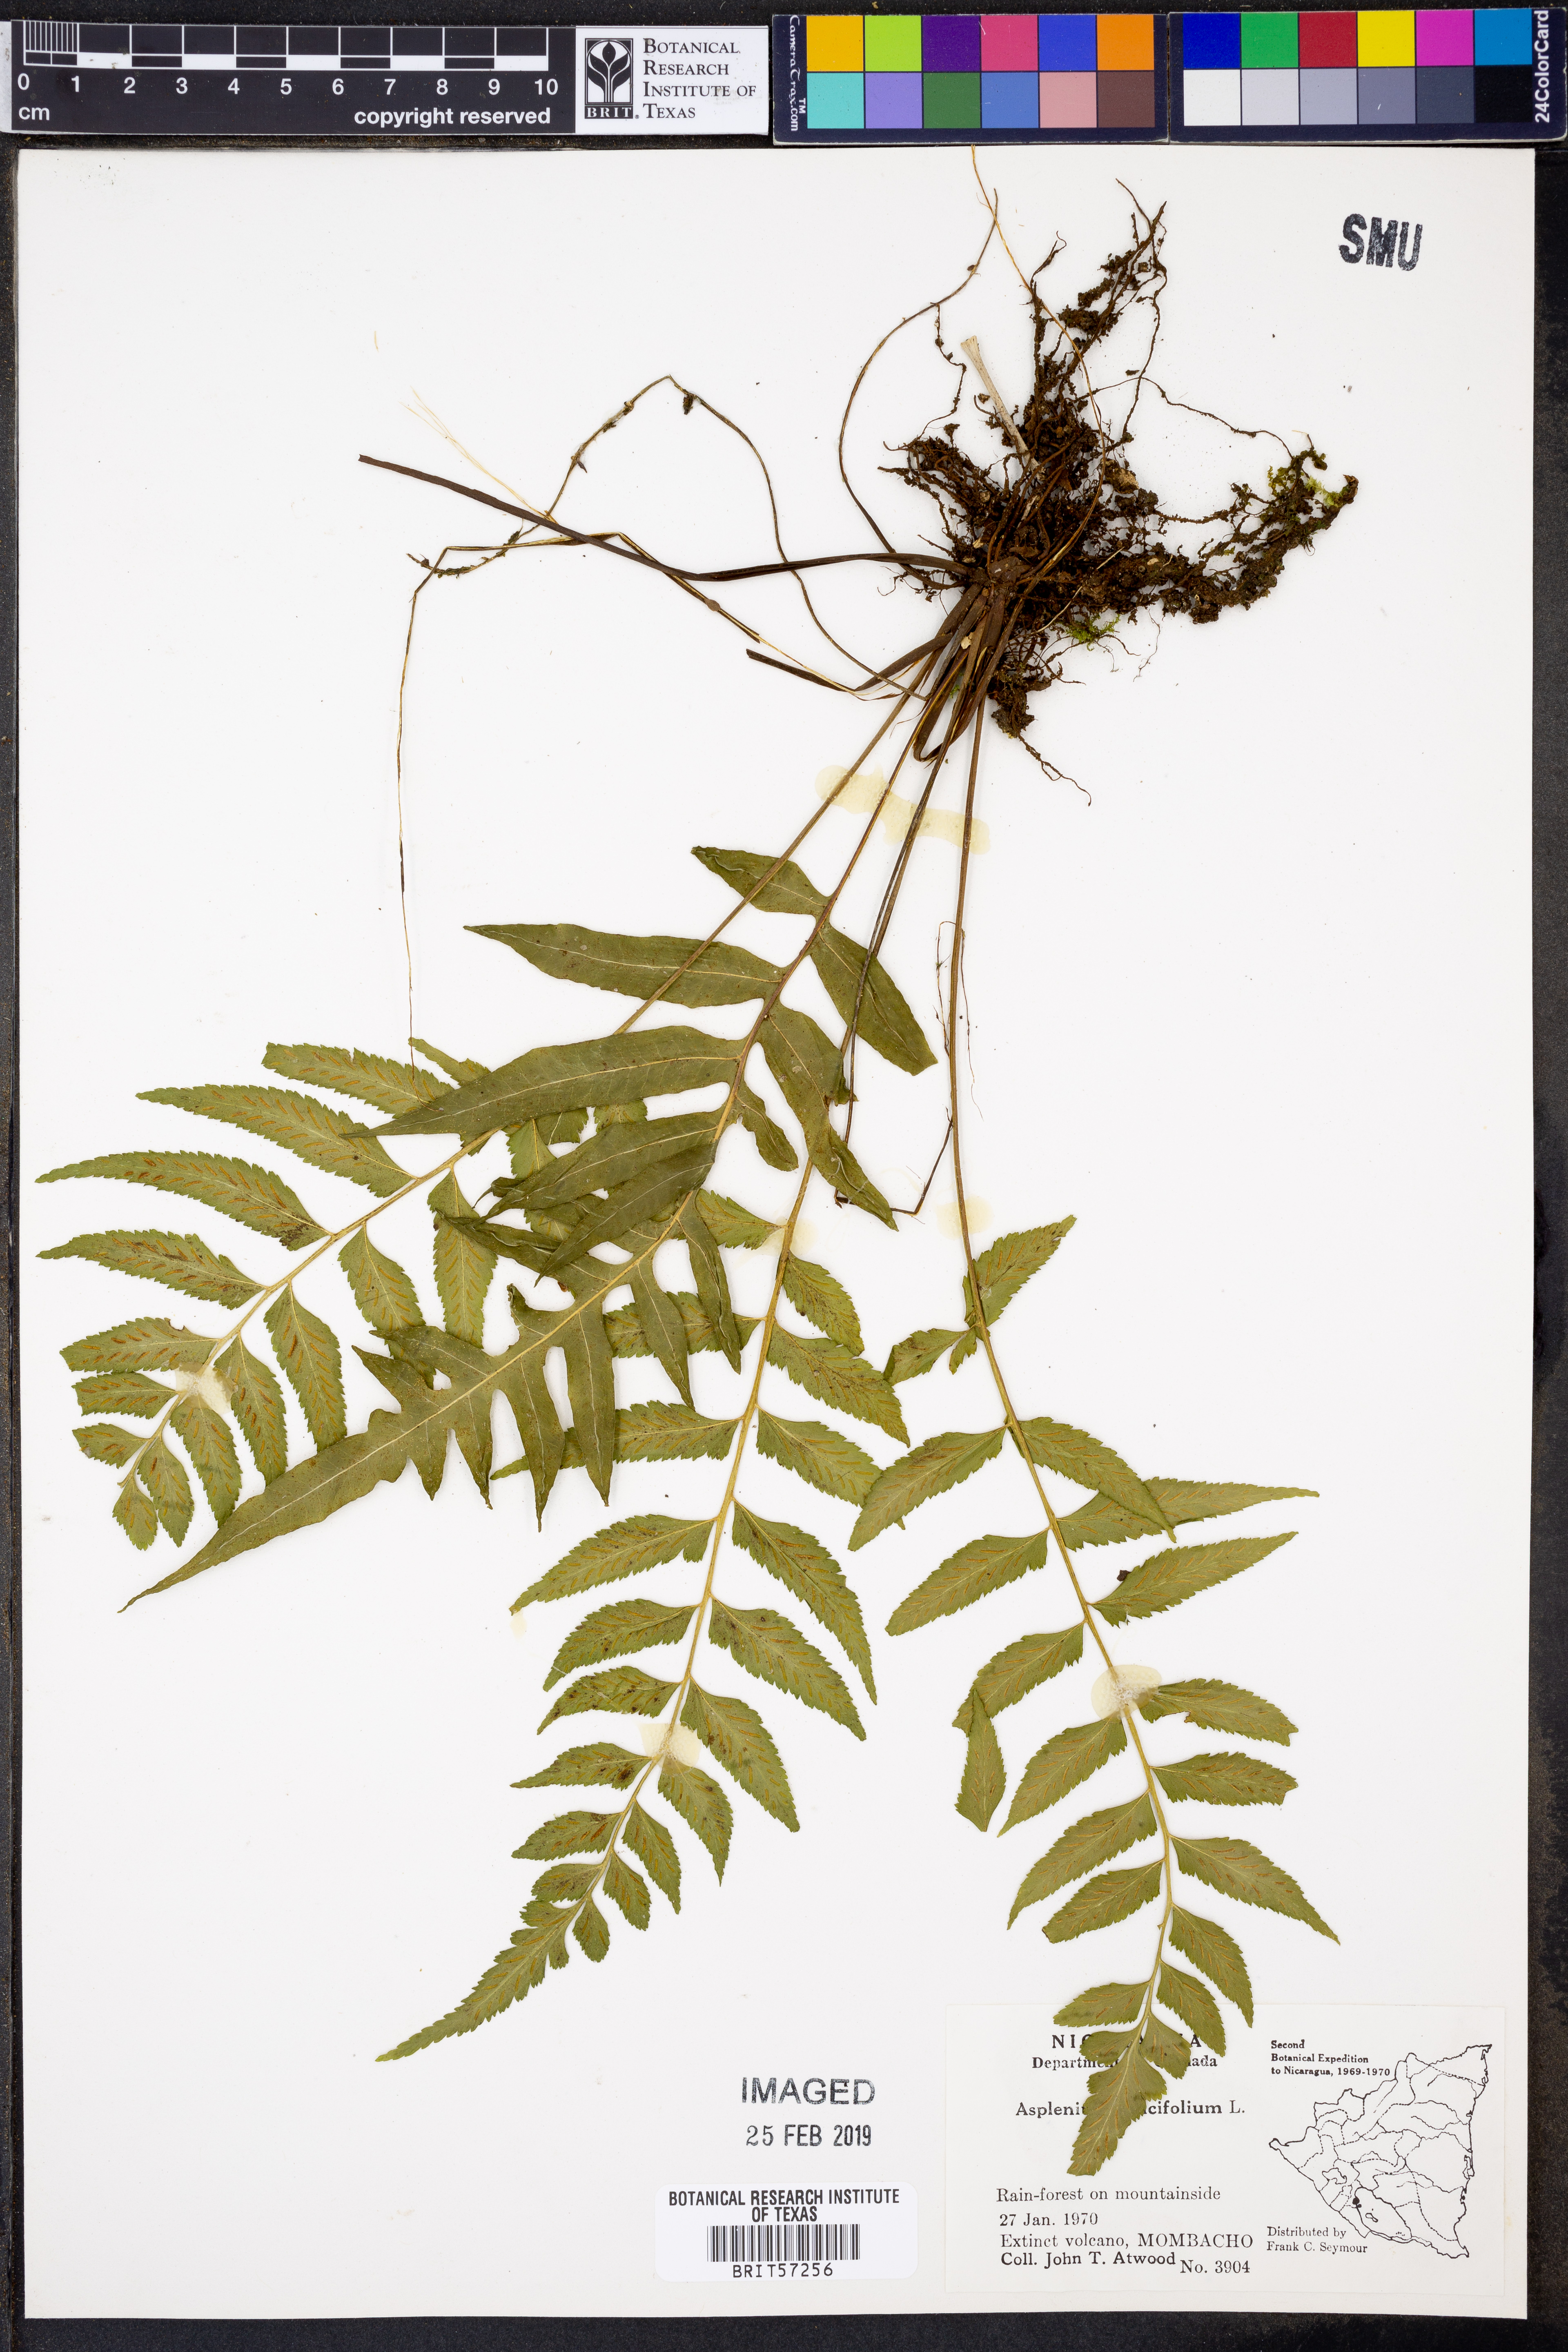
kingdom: Plantae
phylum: Tracheophyta
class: Polypodiopsida
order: Polypodiales
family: Aspleniaceae
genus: Asplenium
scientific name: Asplenium salicifolium
